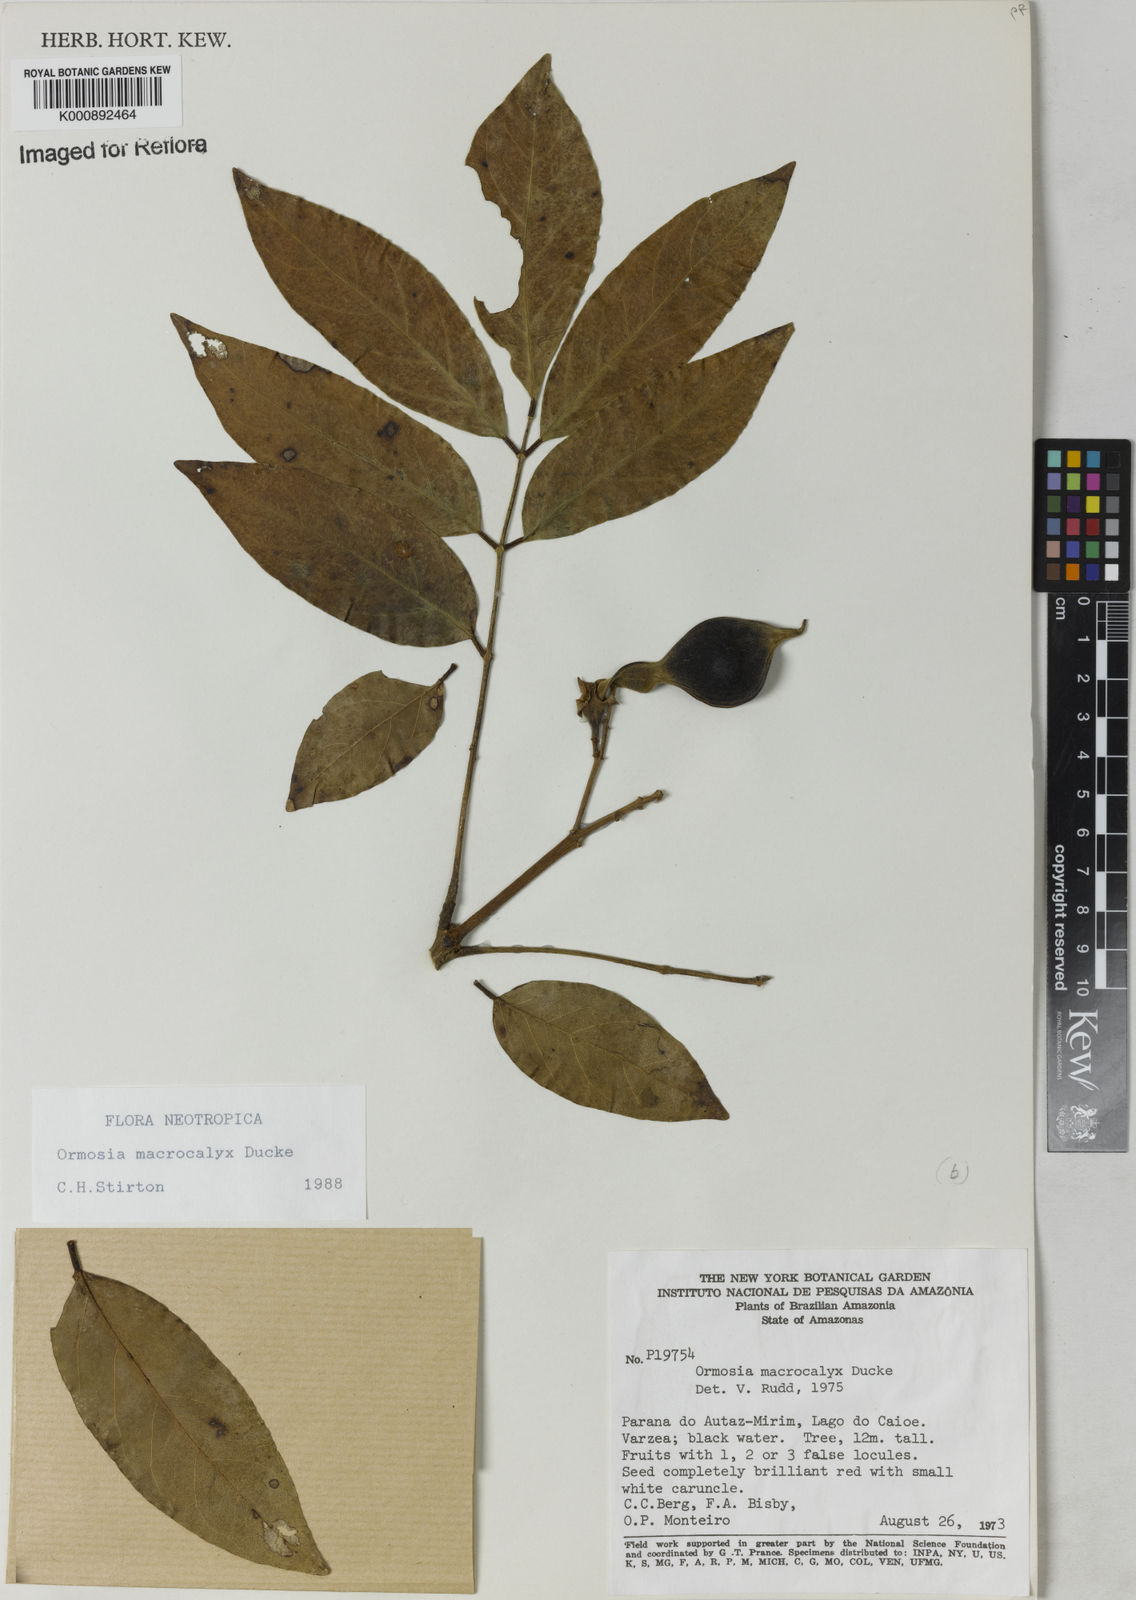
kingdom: Plantae
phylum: Tracheophyta
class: Magnoliopsida
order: Fabales
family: Fabaceae
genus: Ormosia
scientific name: Ormosia macrocalyx
